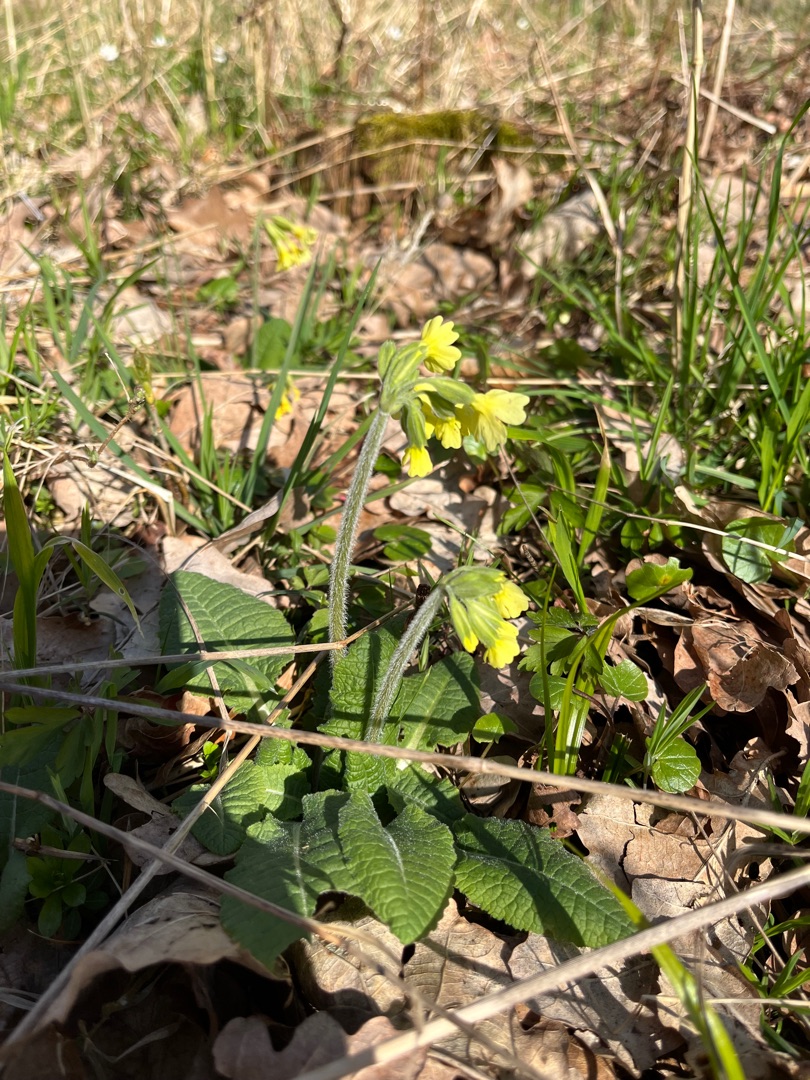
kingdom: Plantae
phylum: Tracheophyta
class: Magnoliopsida
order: Ericales
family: Primulaceae
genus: Primula
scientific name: Primula elatior
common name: Fladkravet kodriver
